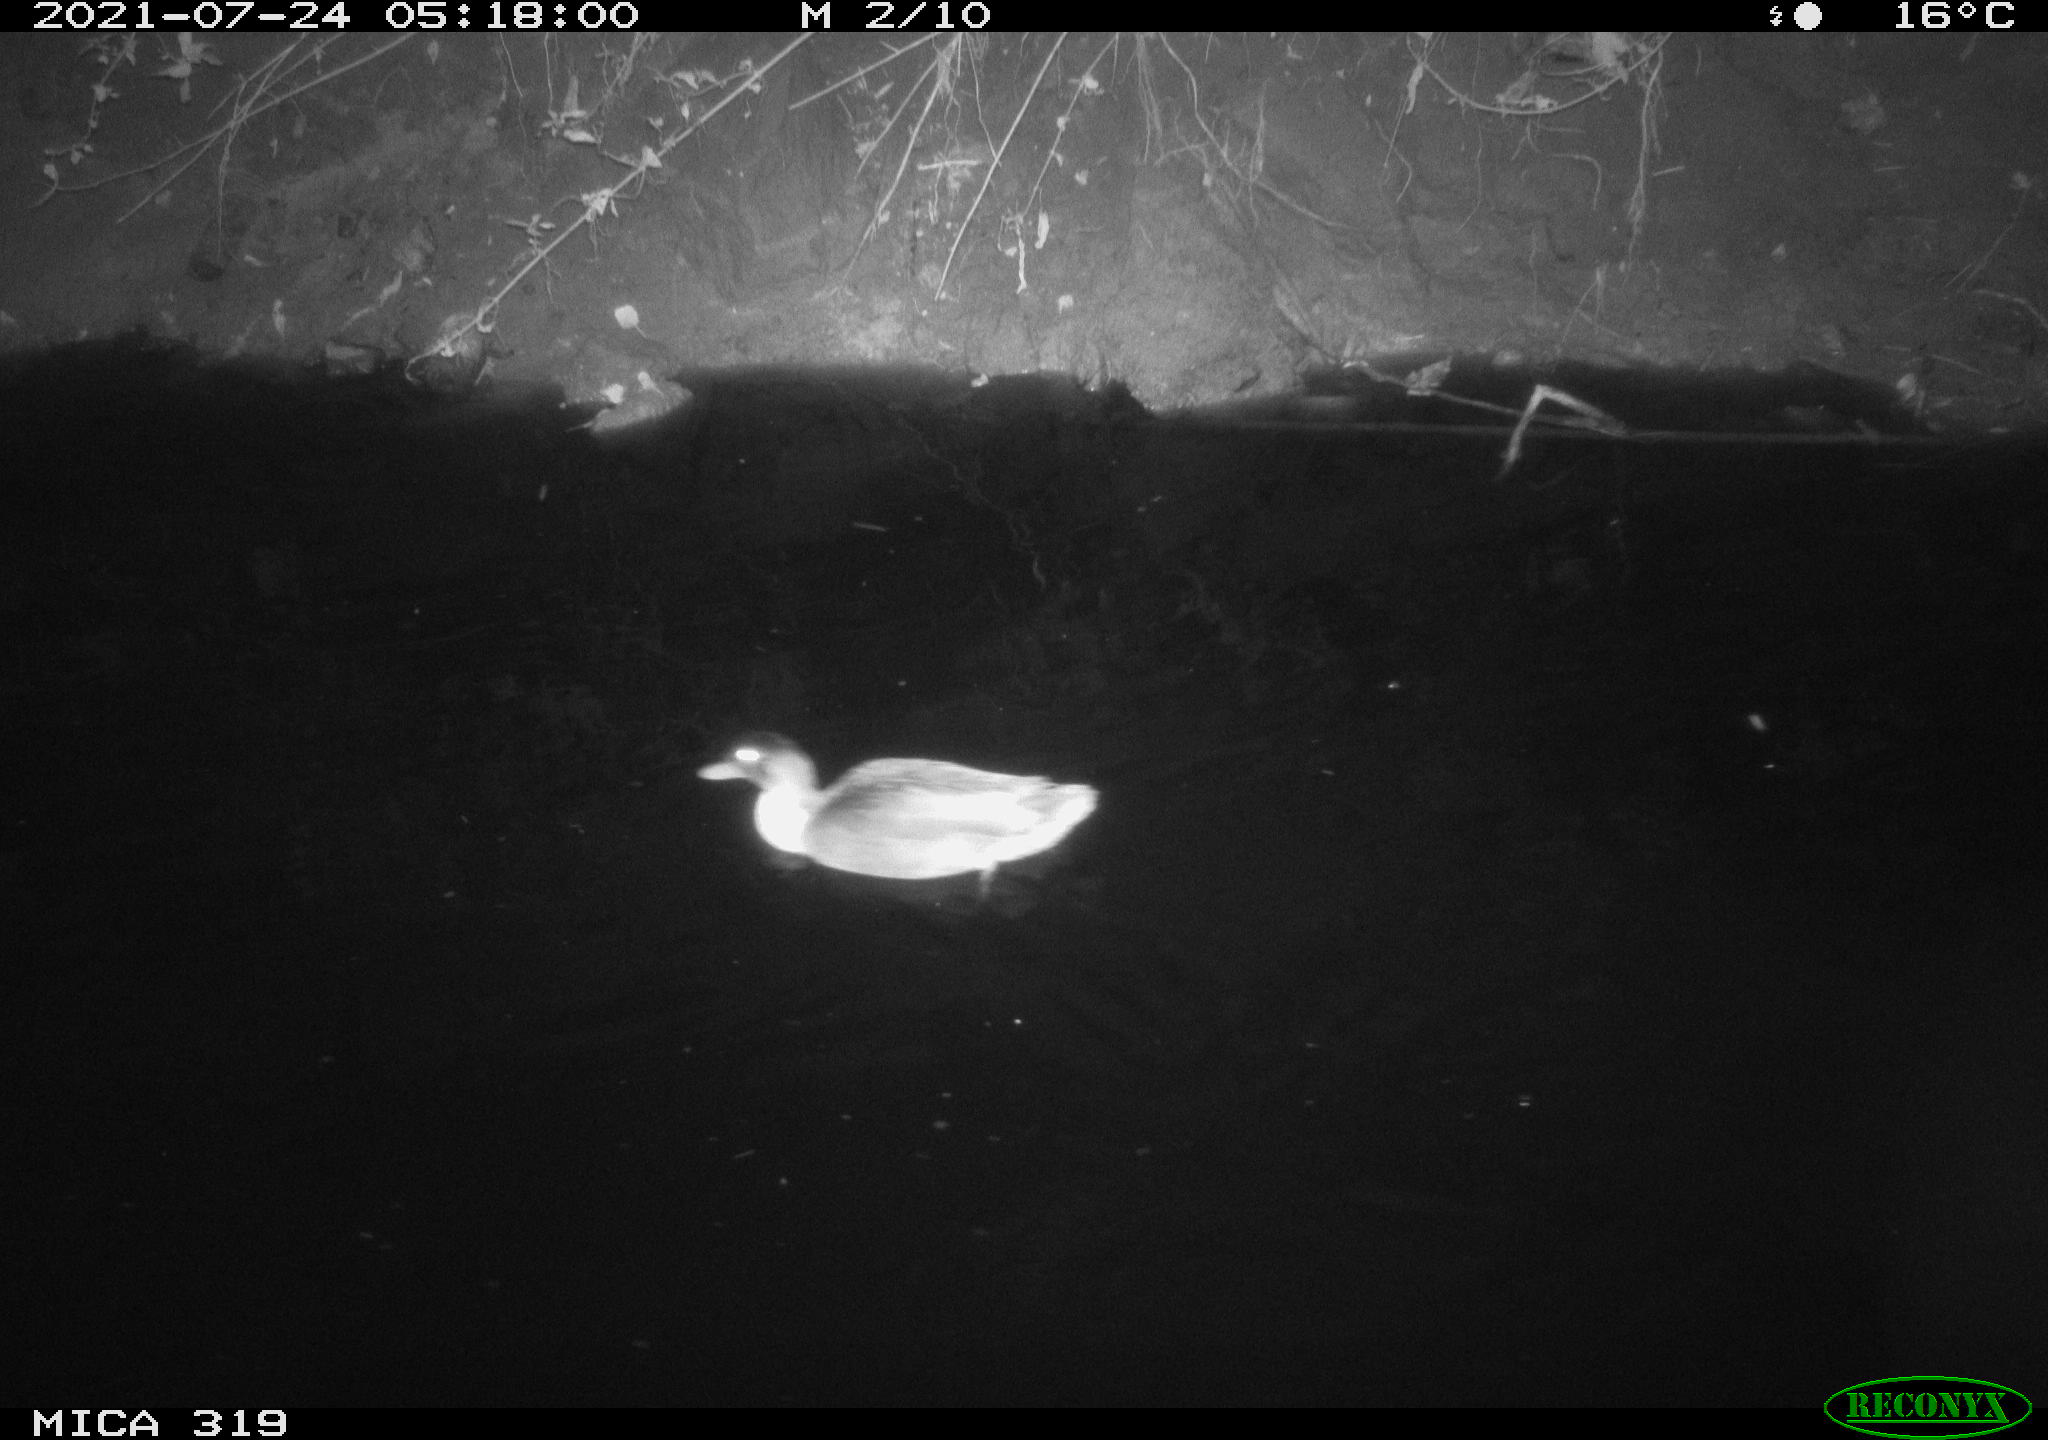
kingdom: Animalia
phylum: Chordata
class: Aves
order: Anseriformes
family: Anatidae
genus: Anas
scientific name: Anas platyrhynchos
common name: Mallard
